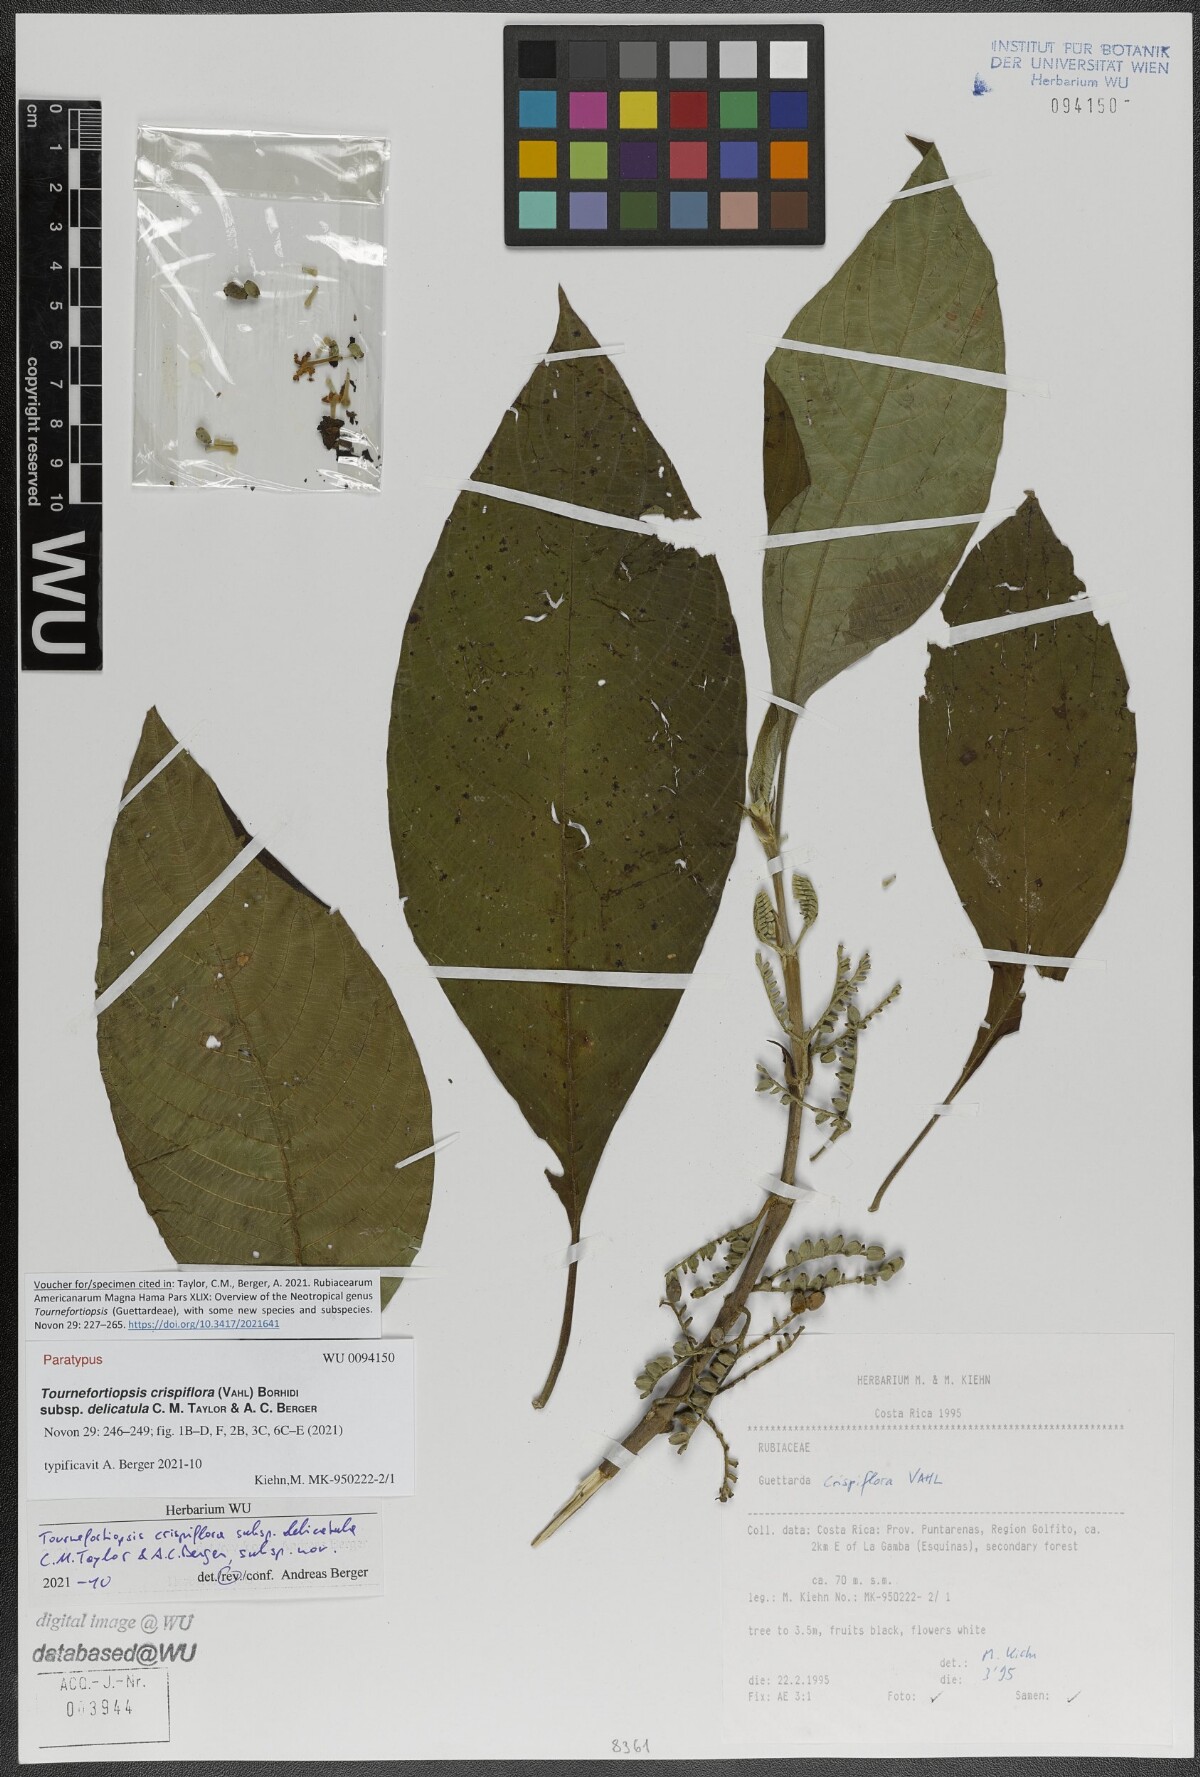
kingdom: Plantae
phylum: Tracheophyta
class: Magnoliopsida
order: Gentianales
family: Rubiaceae
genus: Tournefortiopsis
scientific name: Tournefortiopsis crispiflora
